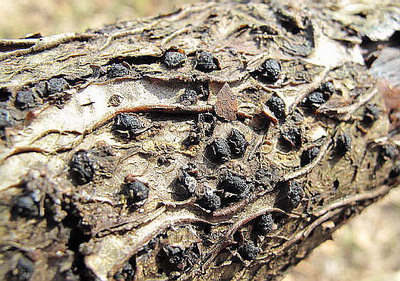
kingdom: Fungi
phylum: Ascomycota
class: Sordariomycetes
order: Xylariales
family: Diatrypaceae
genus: Diatrypella
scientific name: Diatrypella quercina
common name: ege-kulskorpe
